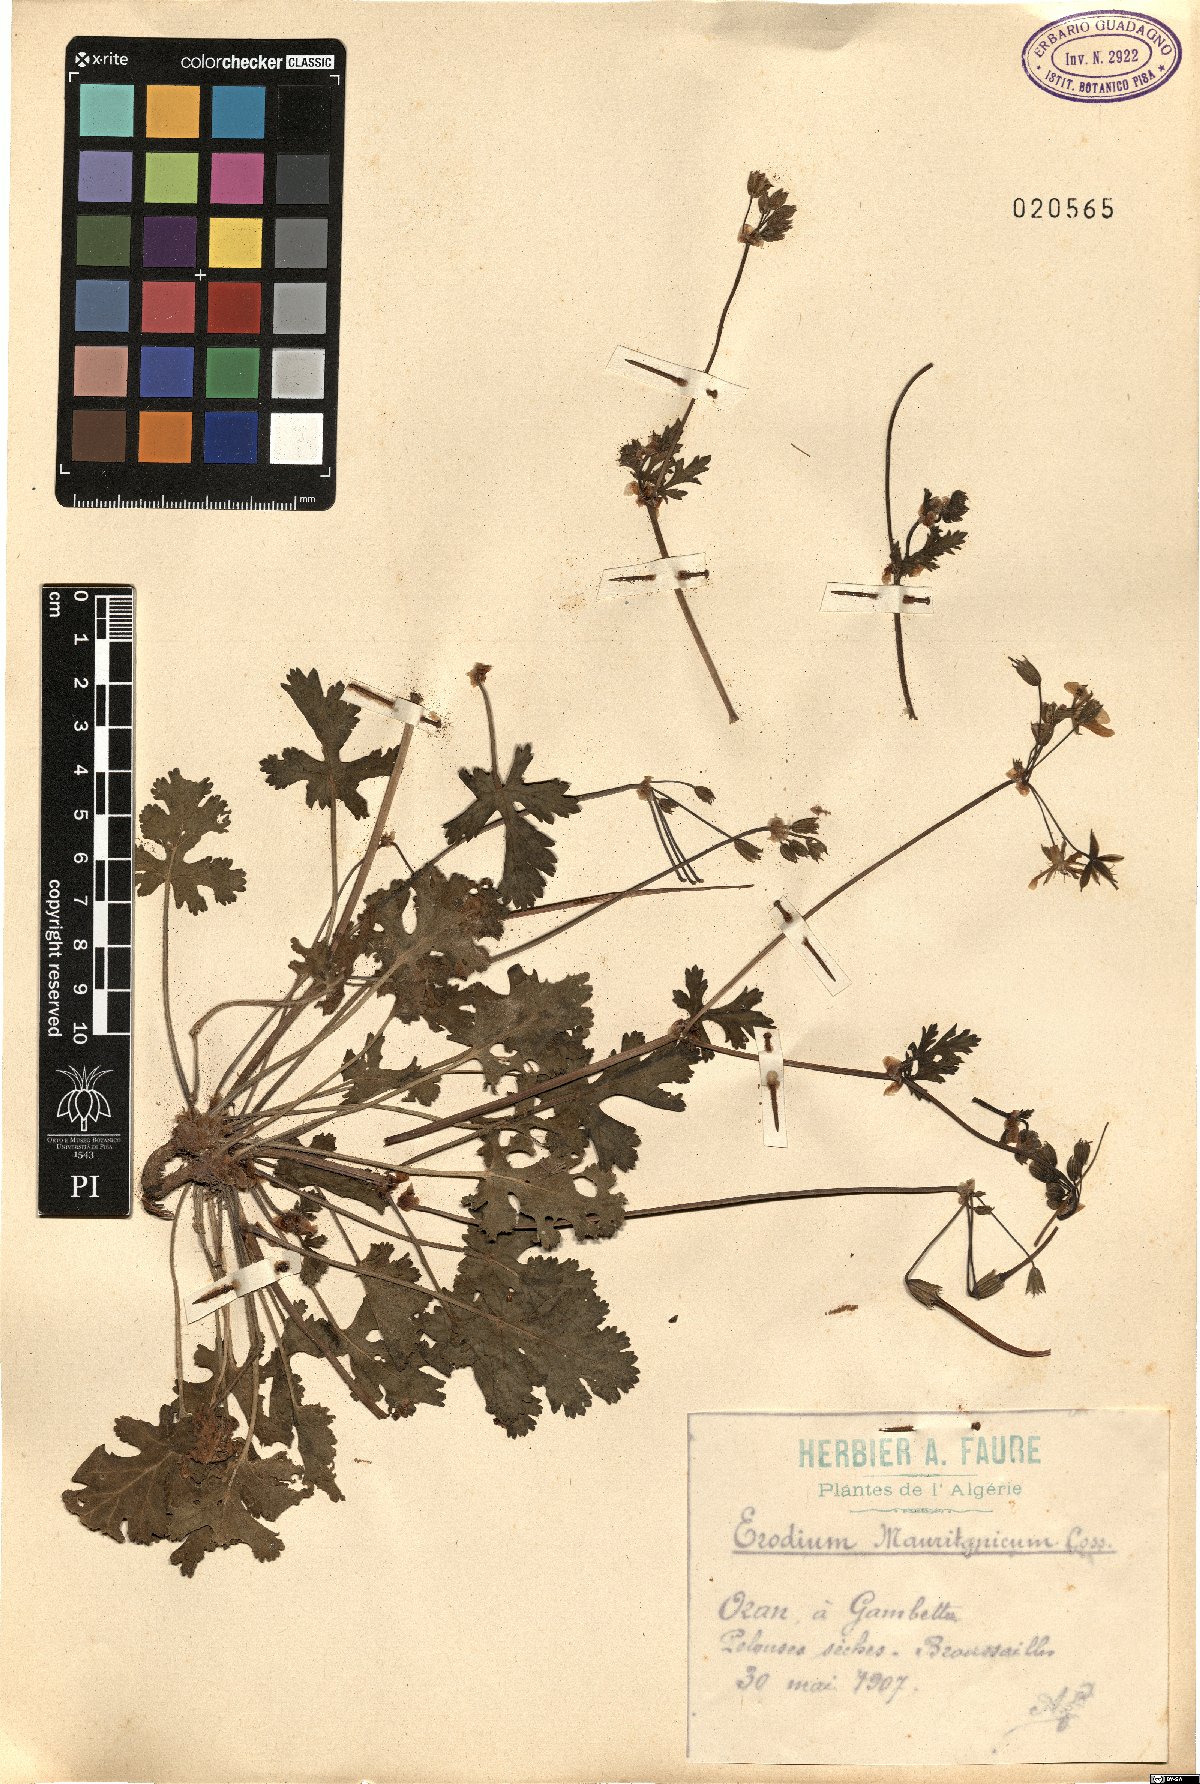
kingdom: Plantae
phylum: Tracheophyta
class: Magnoliopsida
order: Geraniales
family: Geraniaceae
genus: Erodium
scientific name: Erodium munbyanum
